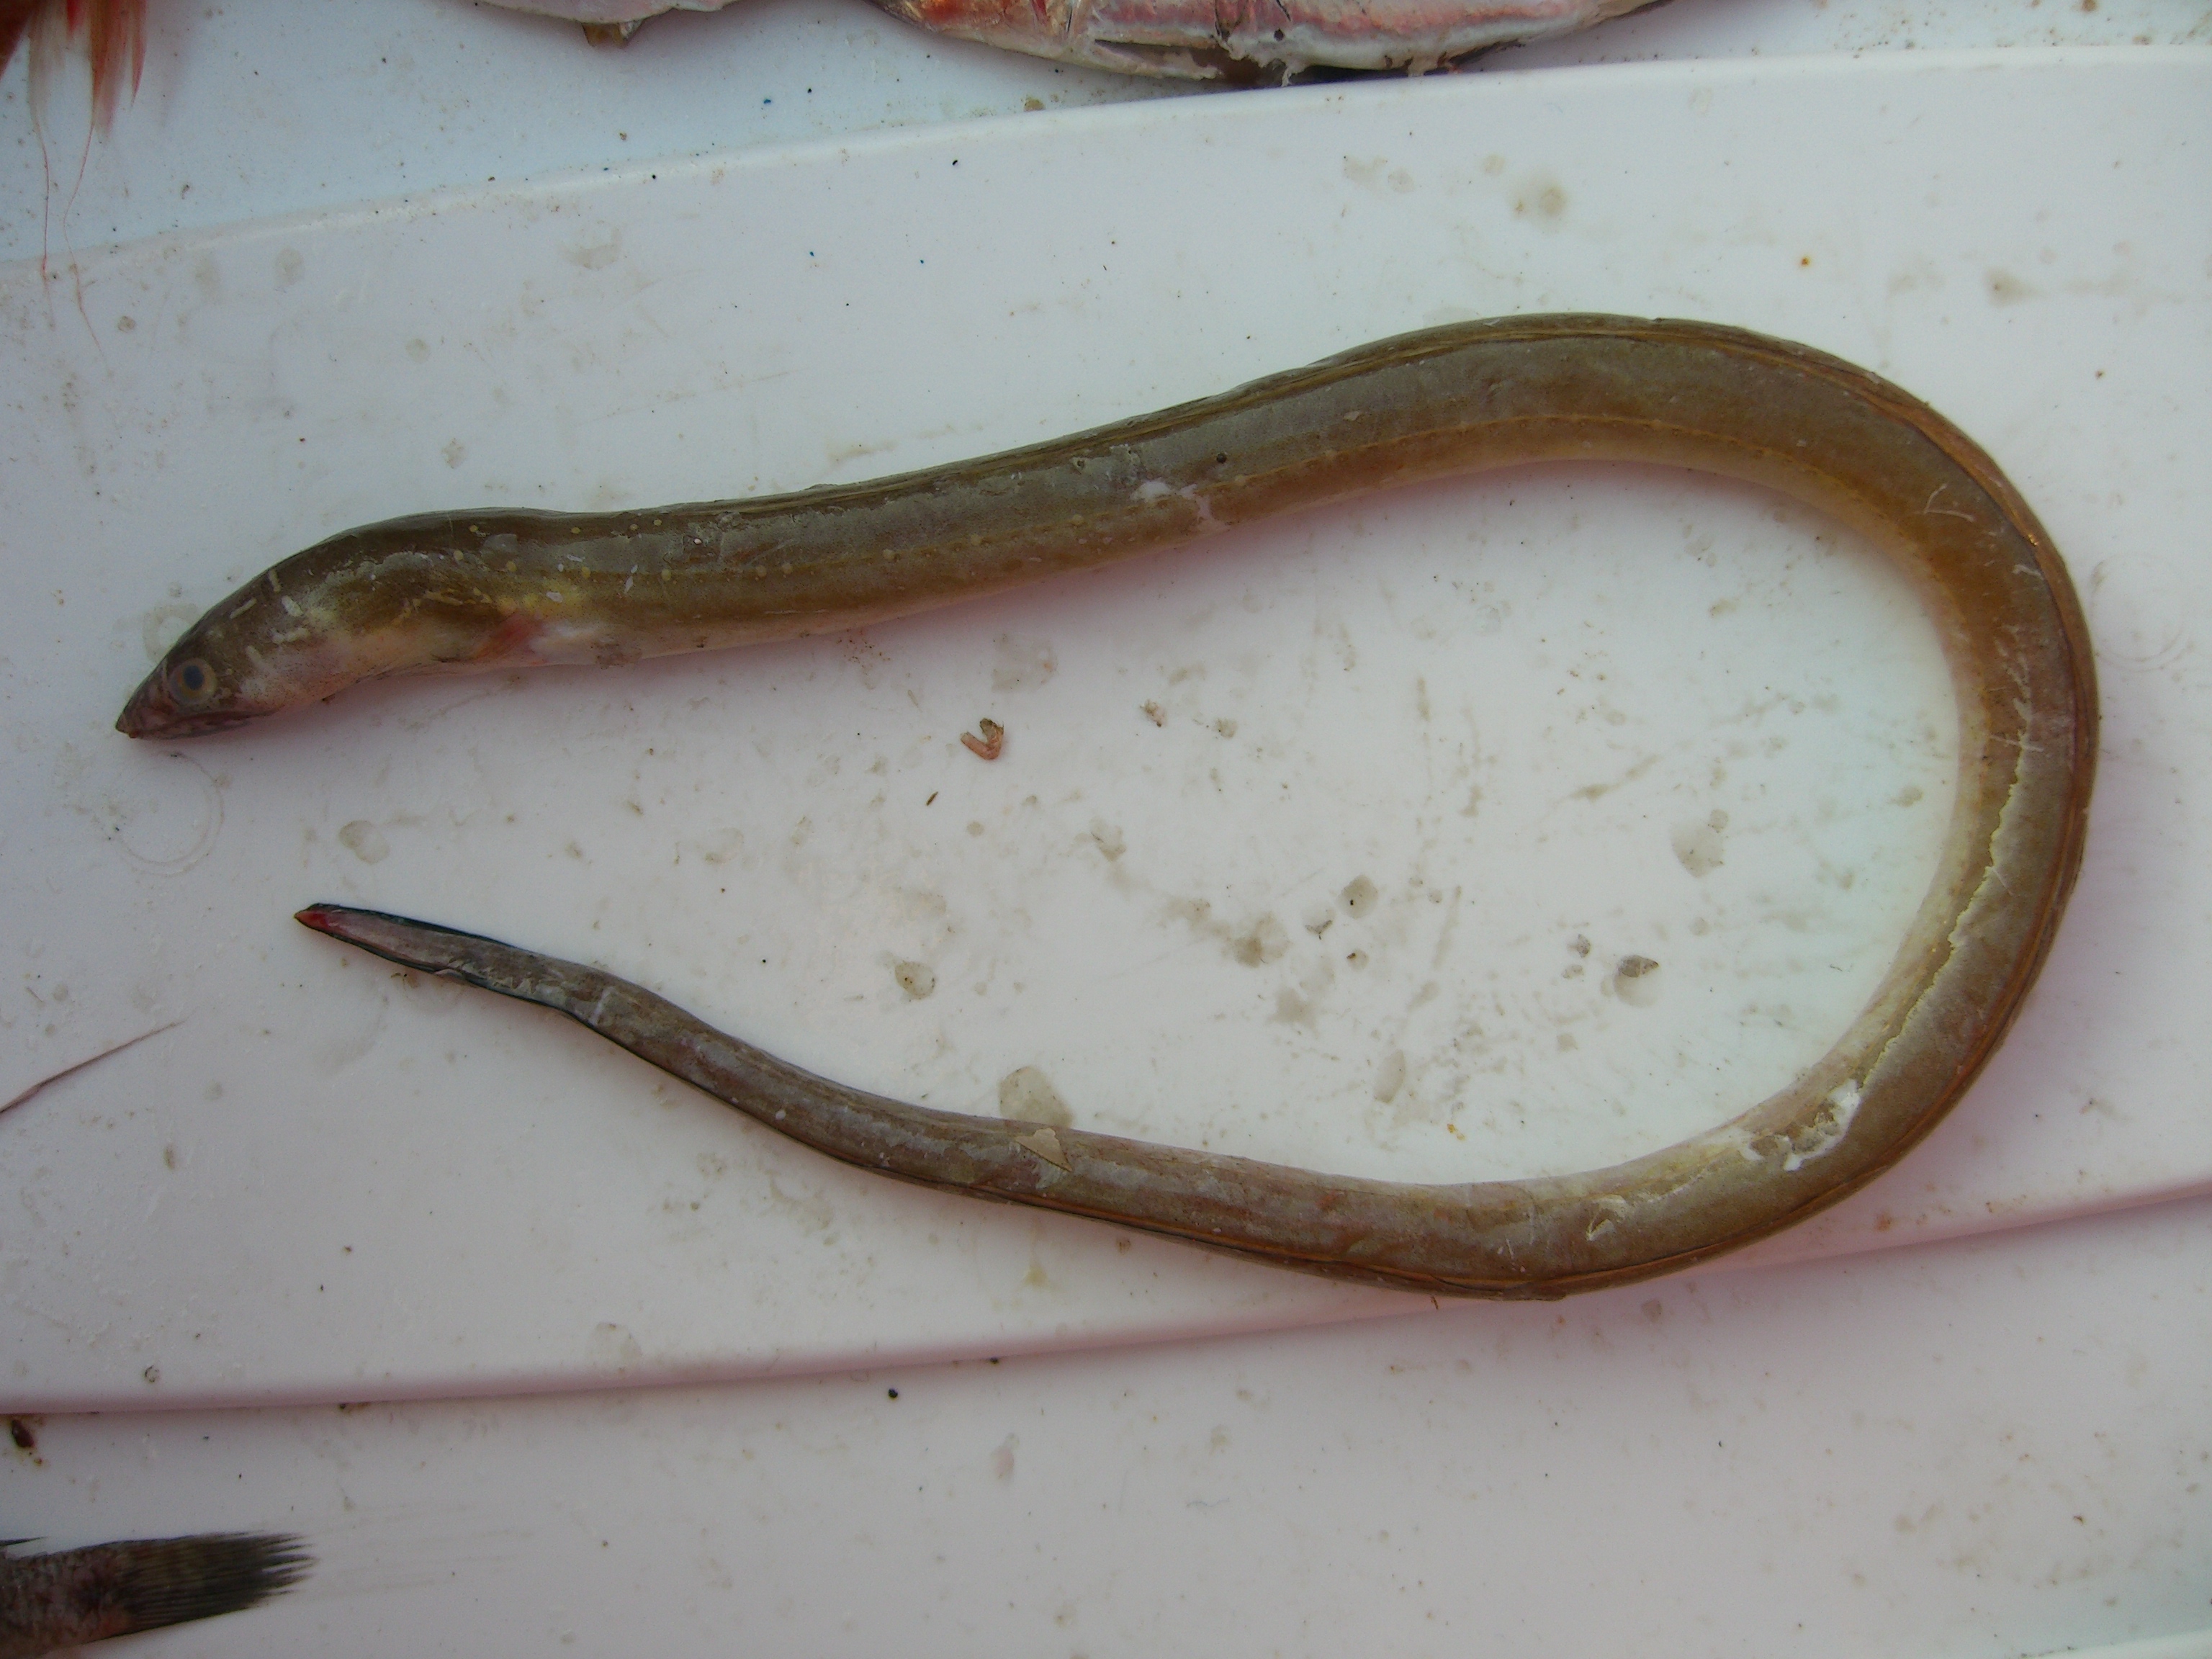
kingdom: Animalia
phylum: Chordata
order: Anguilliformes
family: Ophichthidae
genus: Echelus
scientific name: Echelus myrus
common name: Painted eel
